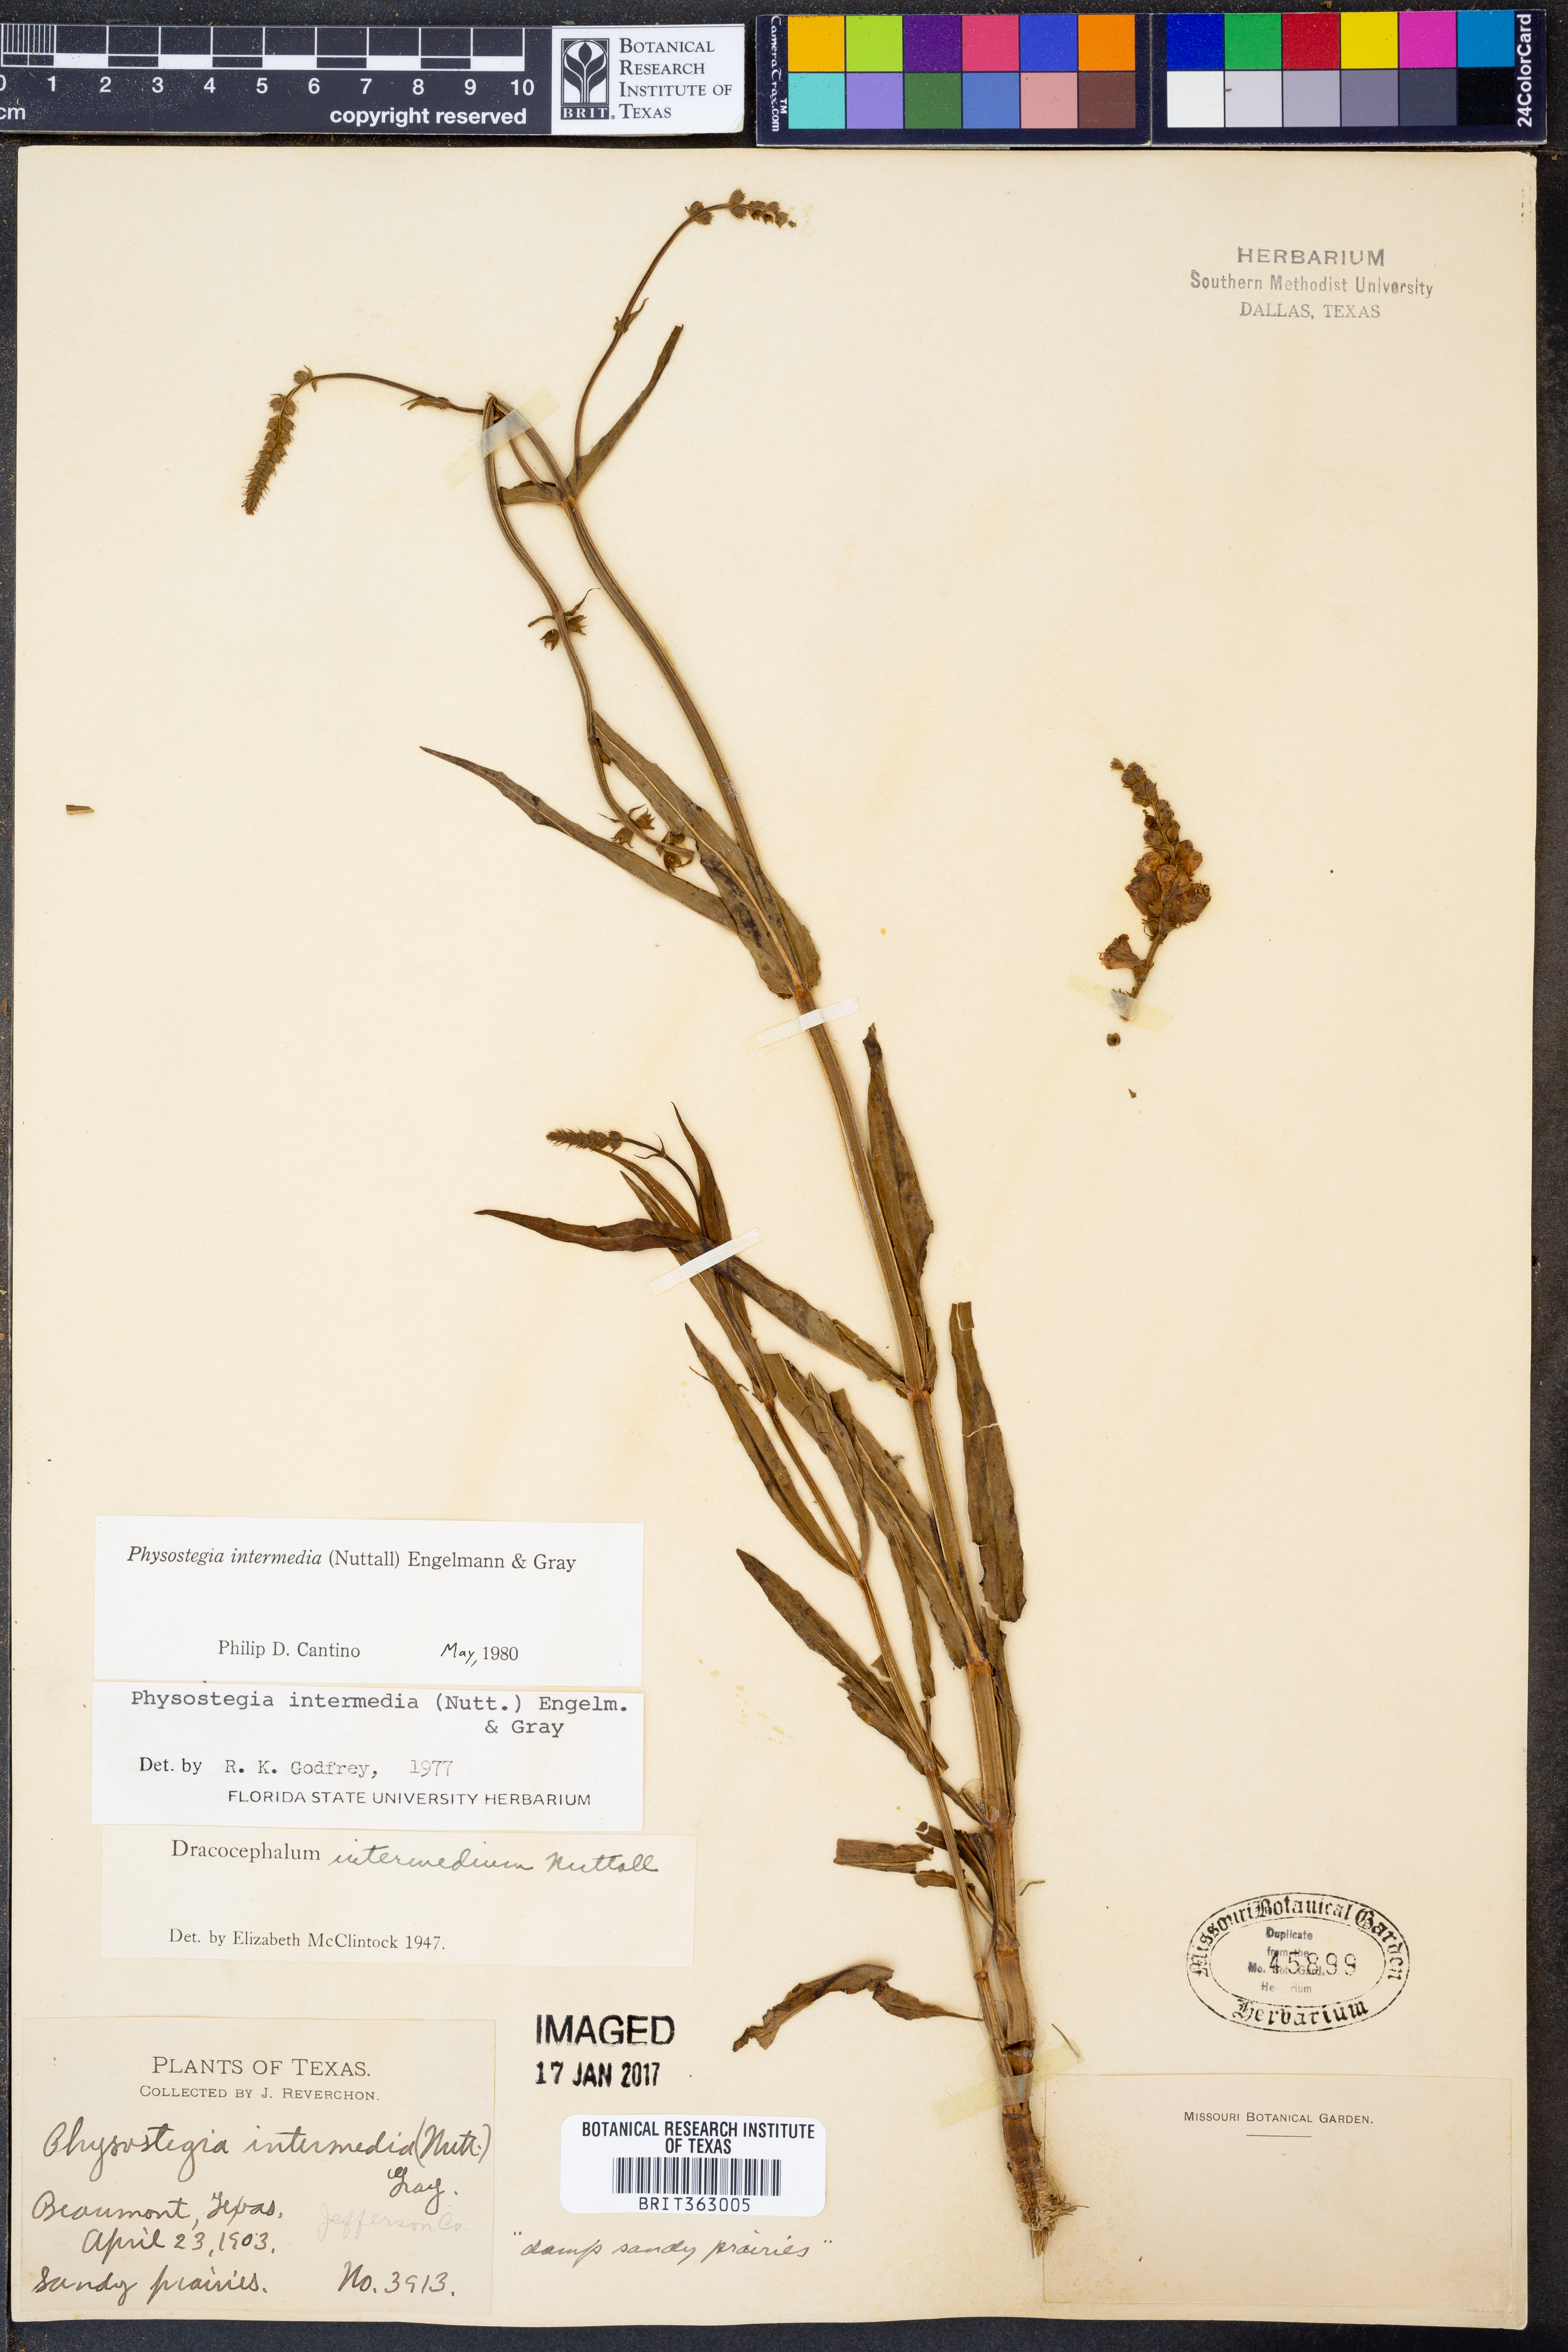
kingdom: Plantae
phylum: Tracheophyta
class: Magnoliopsida
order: Lamiales
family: Lamiaceae
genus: Physostegia
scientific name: Physostegia intermedia
